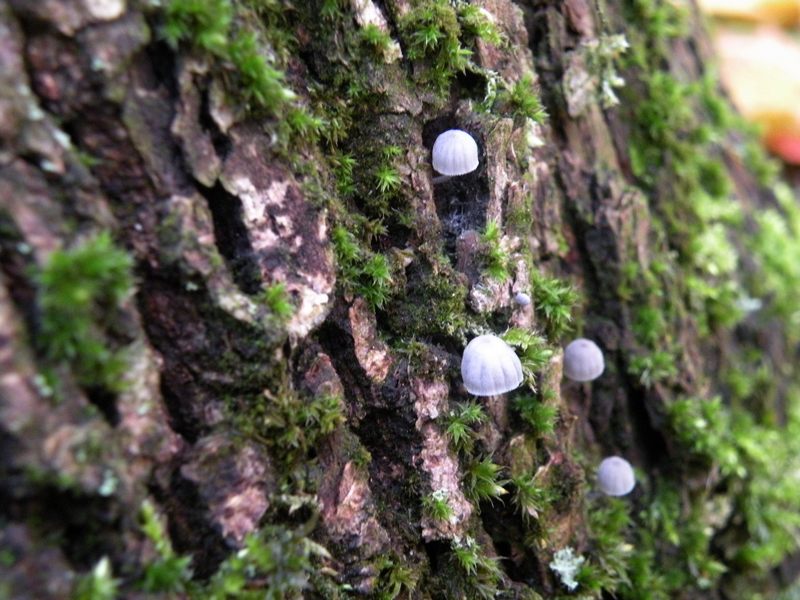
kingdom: Fungi
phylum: Basidiomycota
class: Agaricomycetes
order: Agaricales
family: Mycenaceae
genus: Mycena
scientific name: Mycena pseudocorticola
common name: gråblå bark-huesvamp
